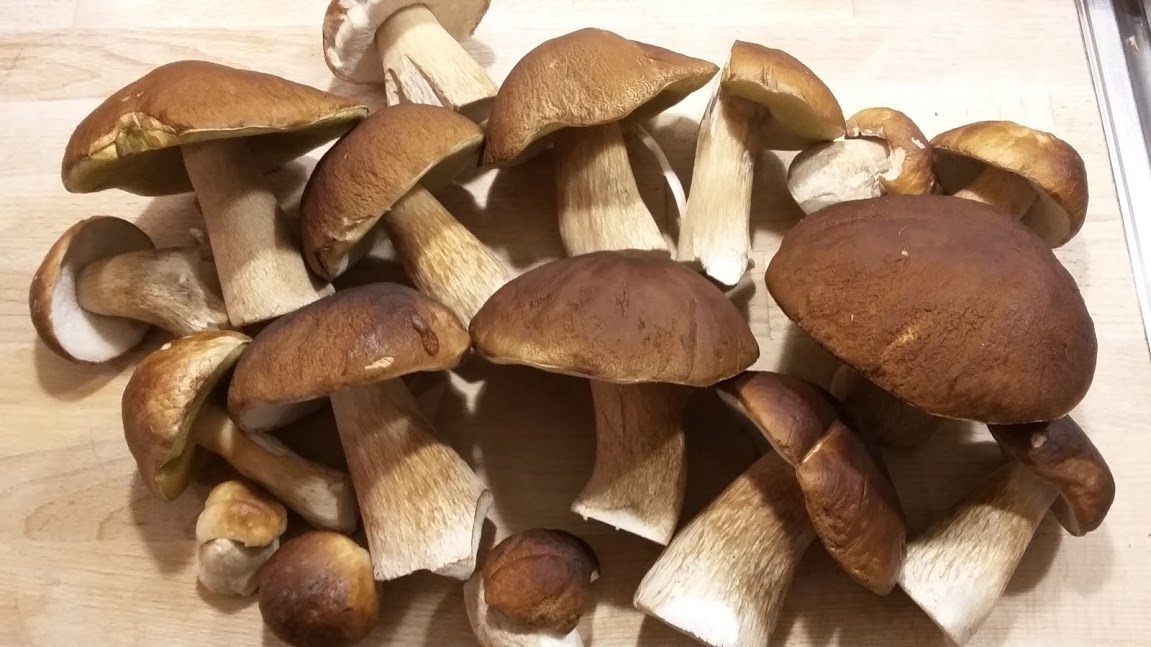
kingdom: Fungi
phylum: Basidiomycota
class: Agaricomycetes
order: Boletales
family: Boletaceae
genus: Boletus
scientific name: Boletus edulis
